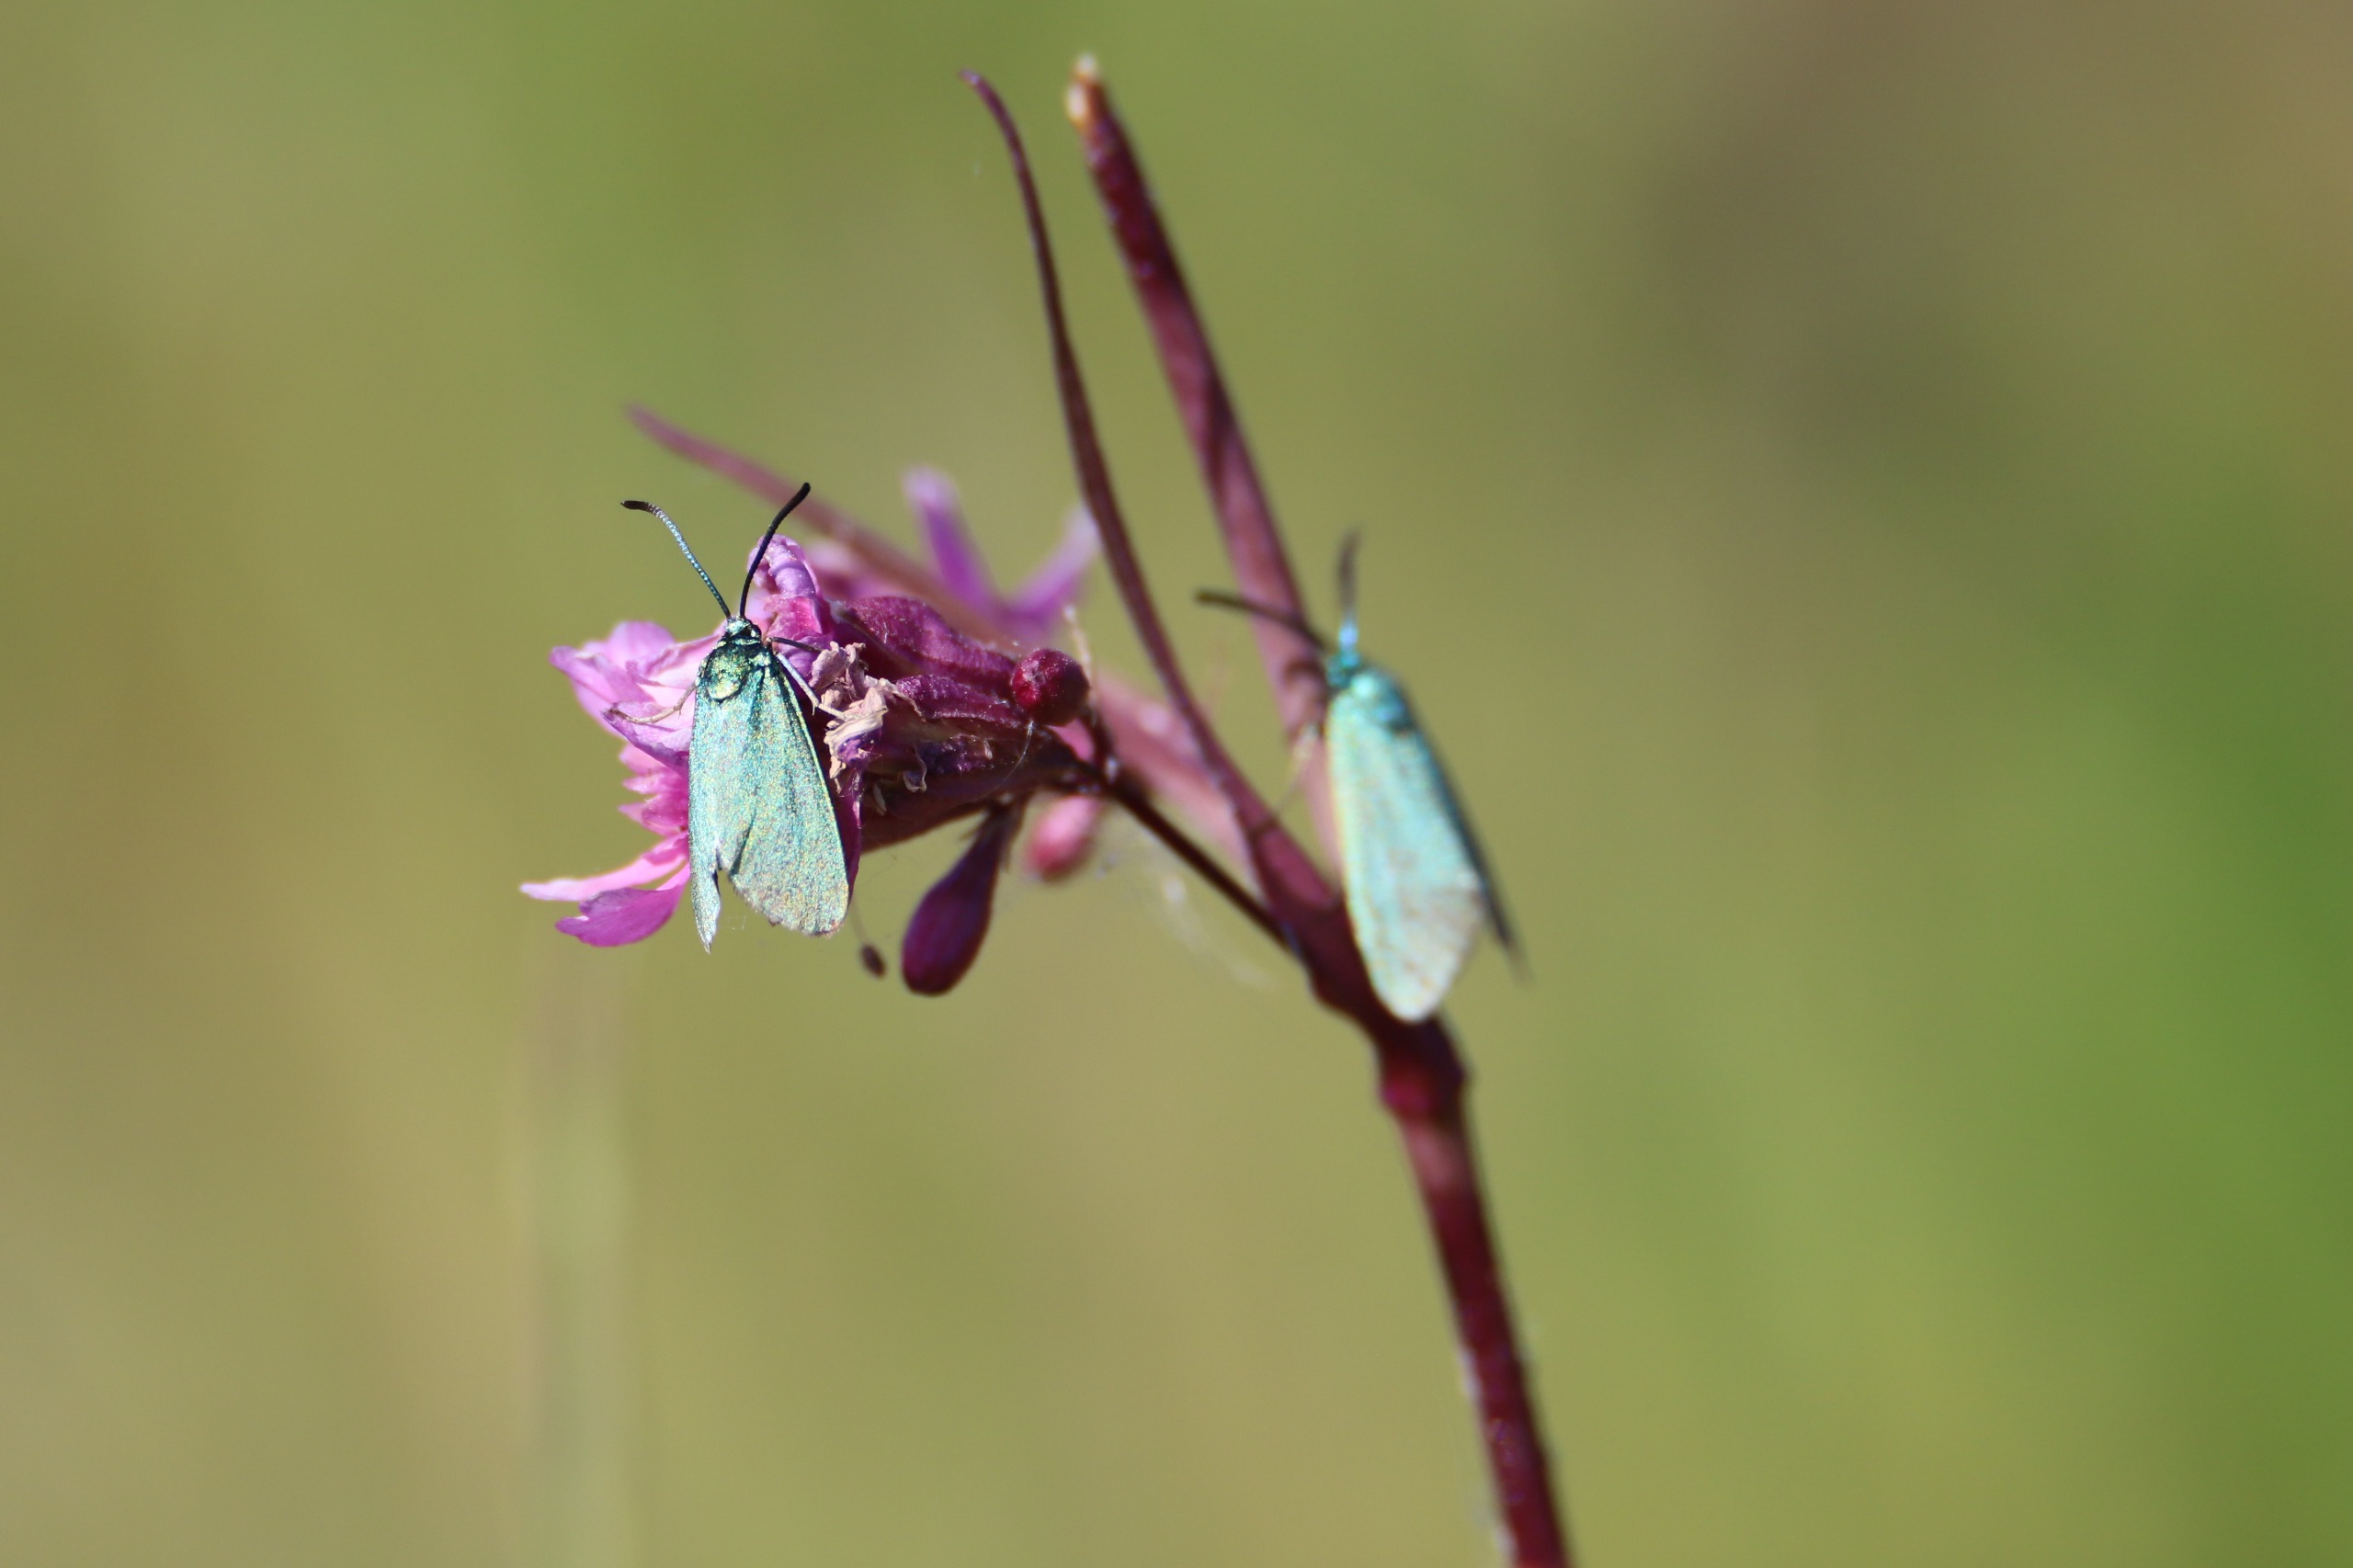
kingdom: Animalia
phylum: Arthropoda
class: Insecta
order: Lepidoptera
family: Zygaenidae
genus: Adscita
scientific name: Adscita statices
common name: Metalvinge
